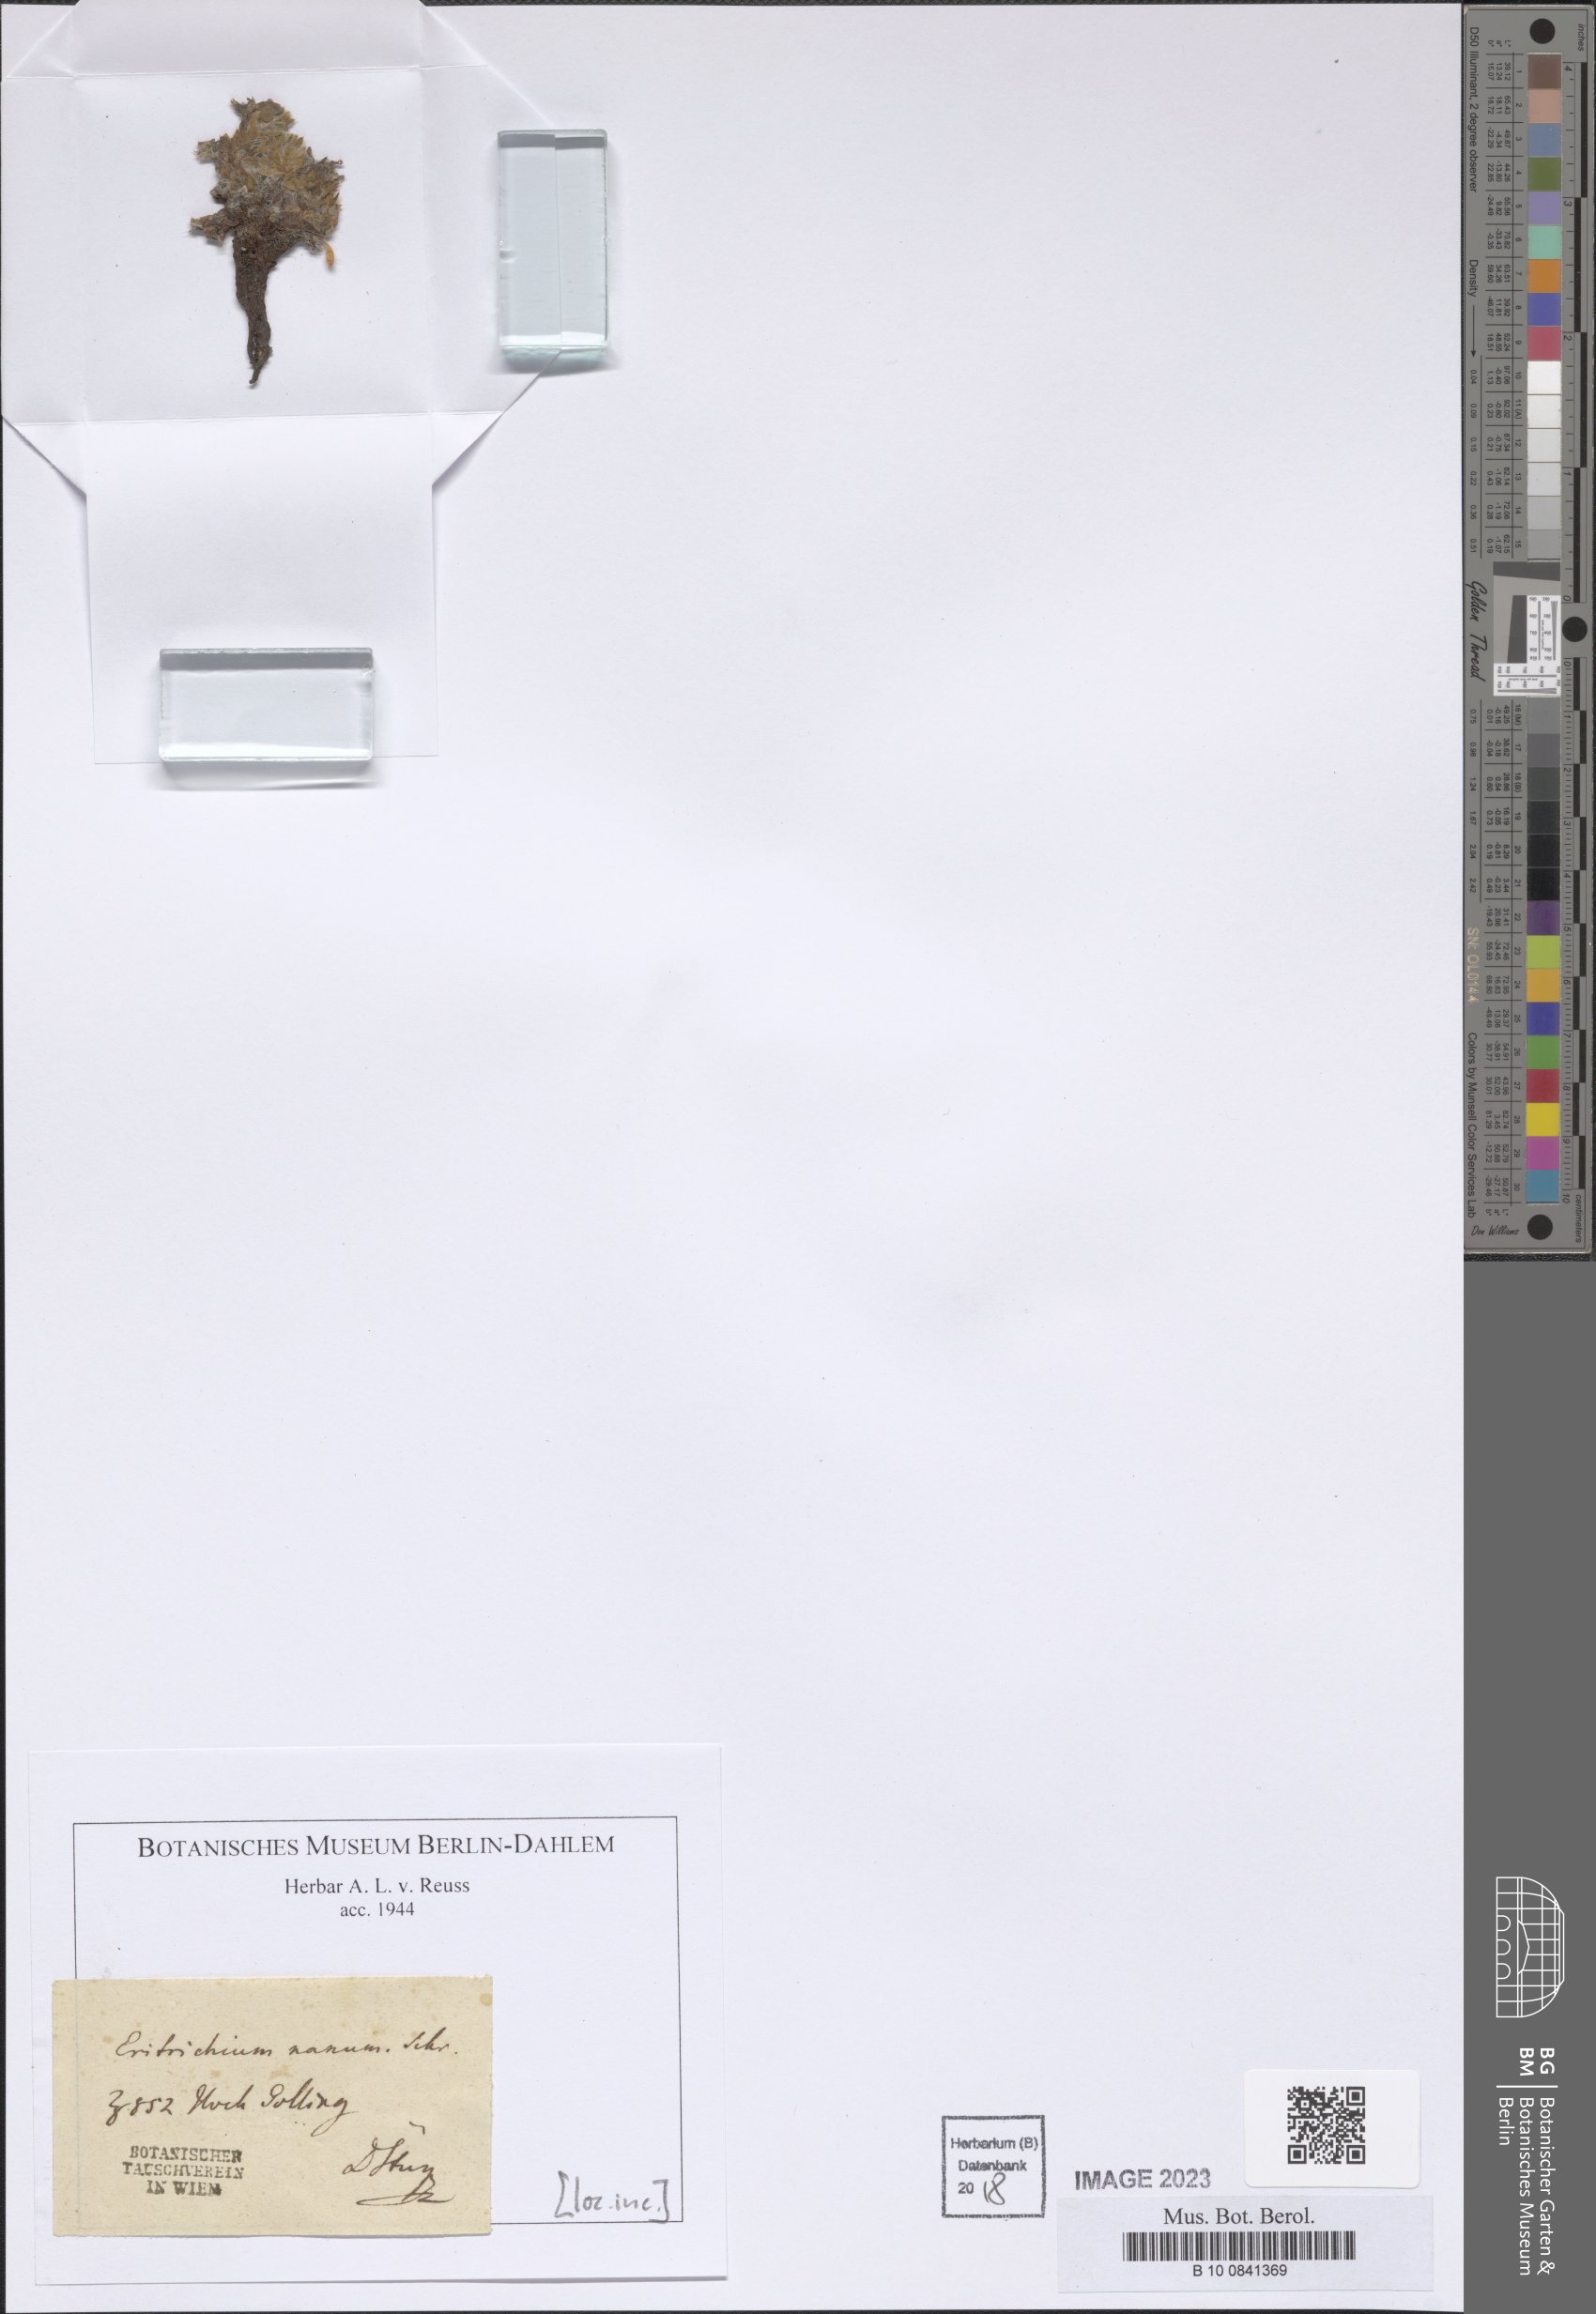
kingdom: Plantae
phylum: Tracheophyta
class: Magnoliopsida
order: Boraginales
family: Boraginaceae
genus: Eritrichium
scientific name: Eritrichium nanum
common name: King-of-the-alps
